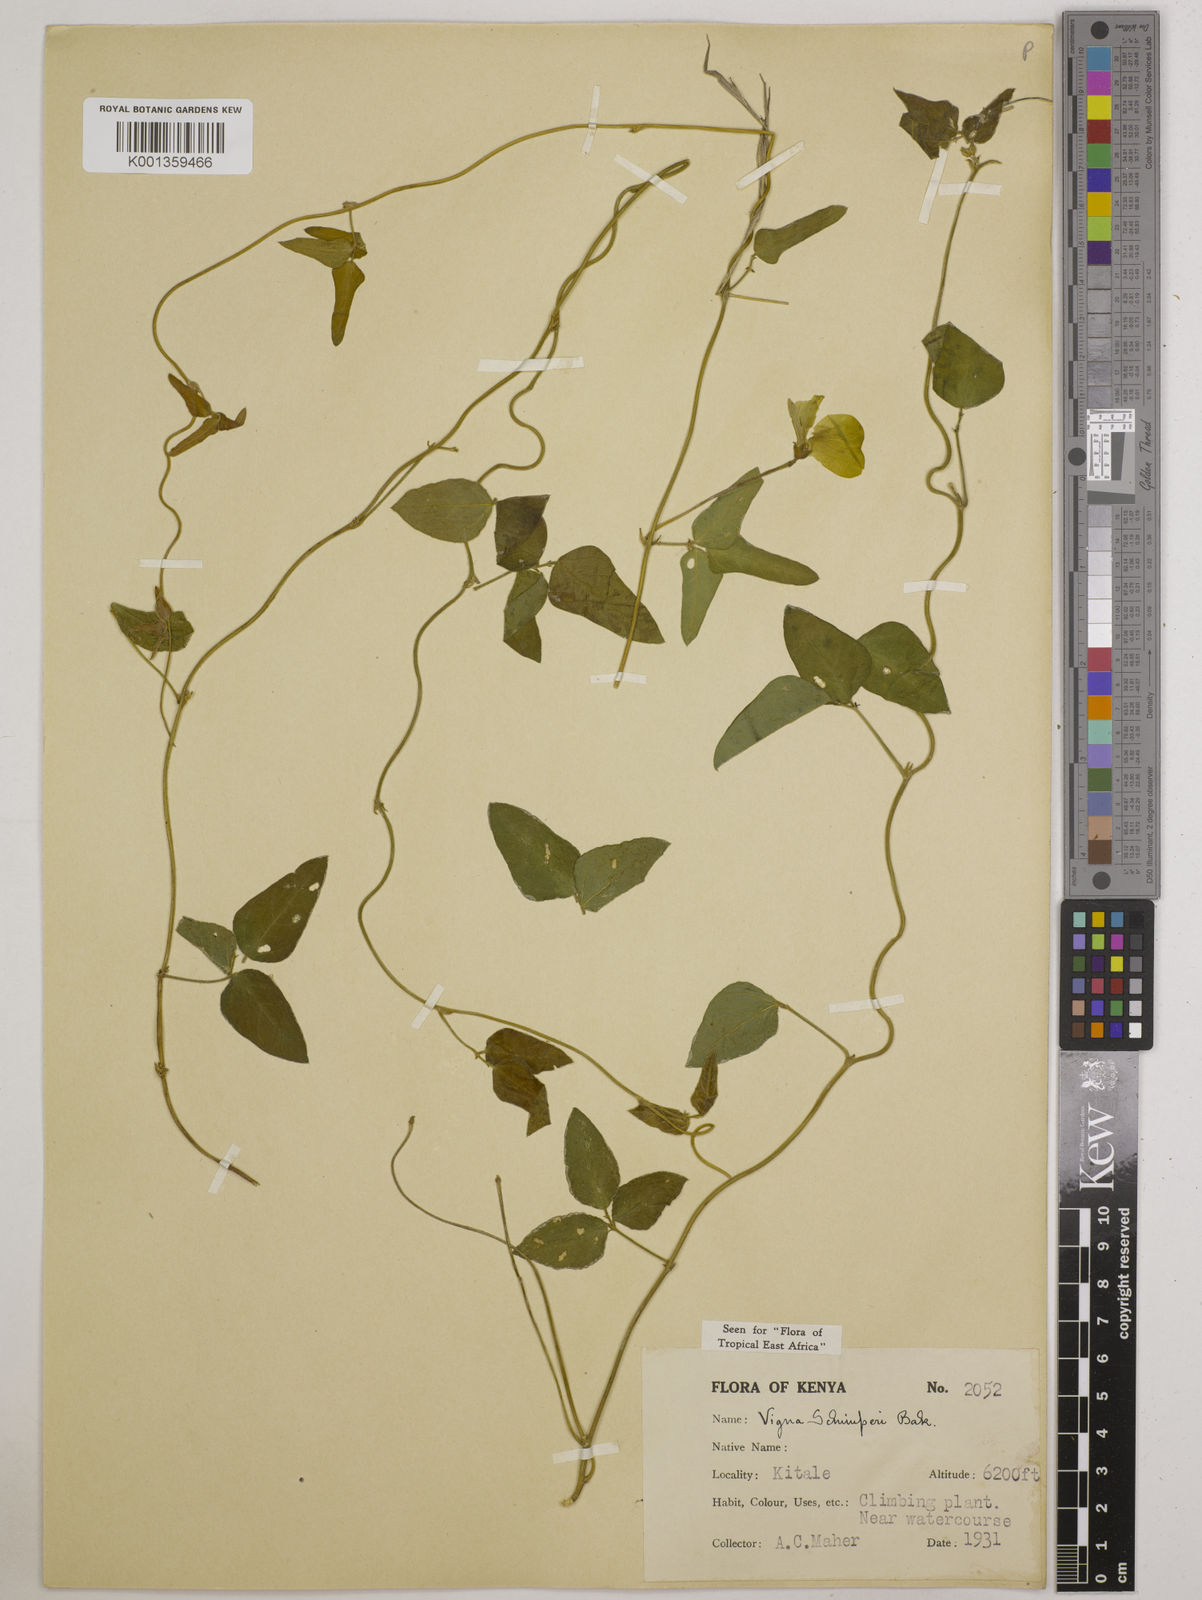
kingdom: Plantae
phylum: Tracheophyta
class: Magnoliopsida
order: Fabales
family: Fabaceae
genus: Vigna
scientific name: Vigna schimperi
